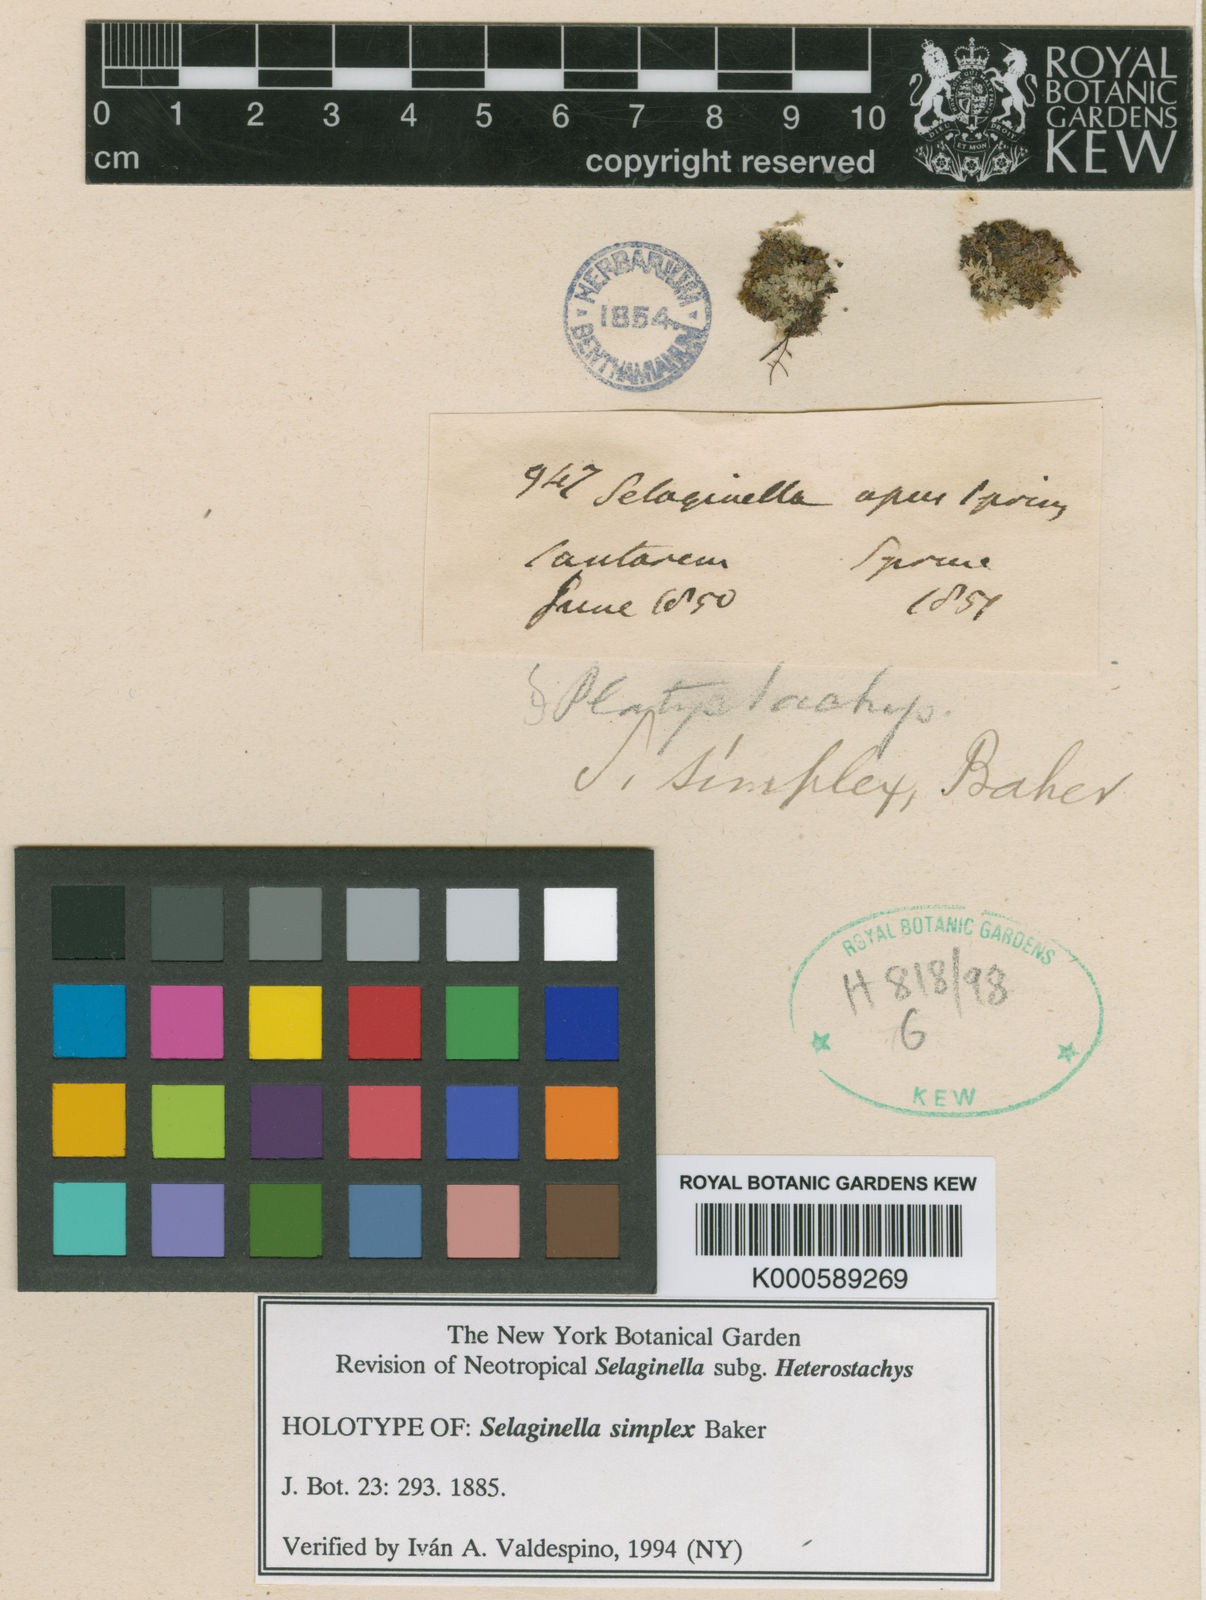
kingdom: Plantae
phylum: Tracheophyta
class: Lycopodiopsida
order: Selaginellales
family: Selaginellaceae
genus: Selaginella
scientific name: Selaginella simplex
